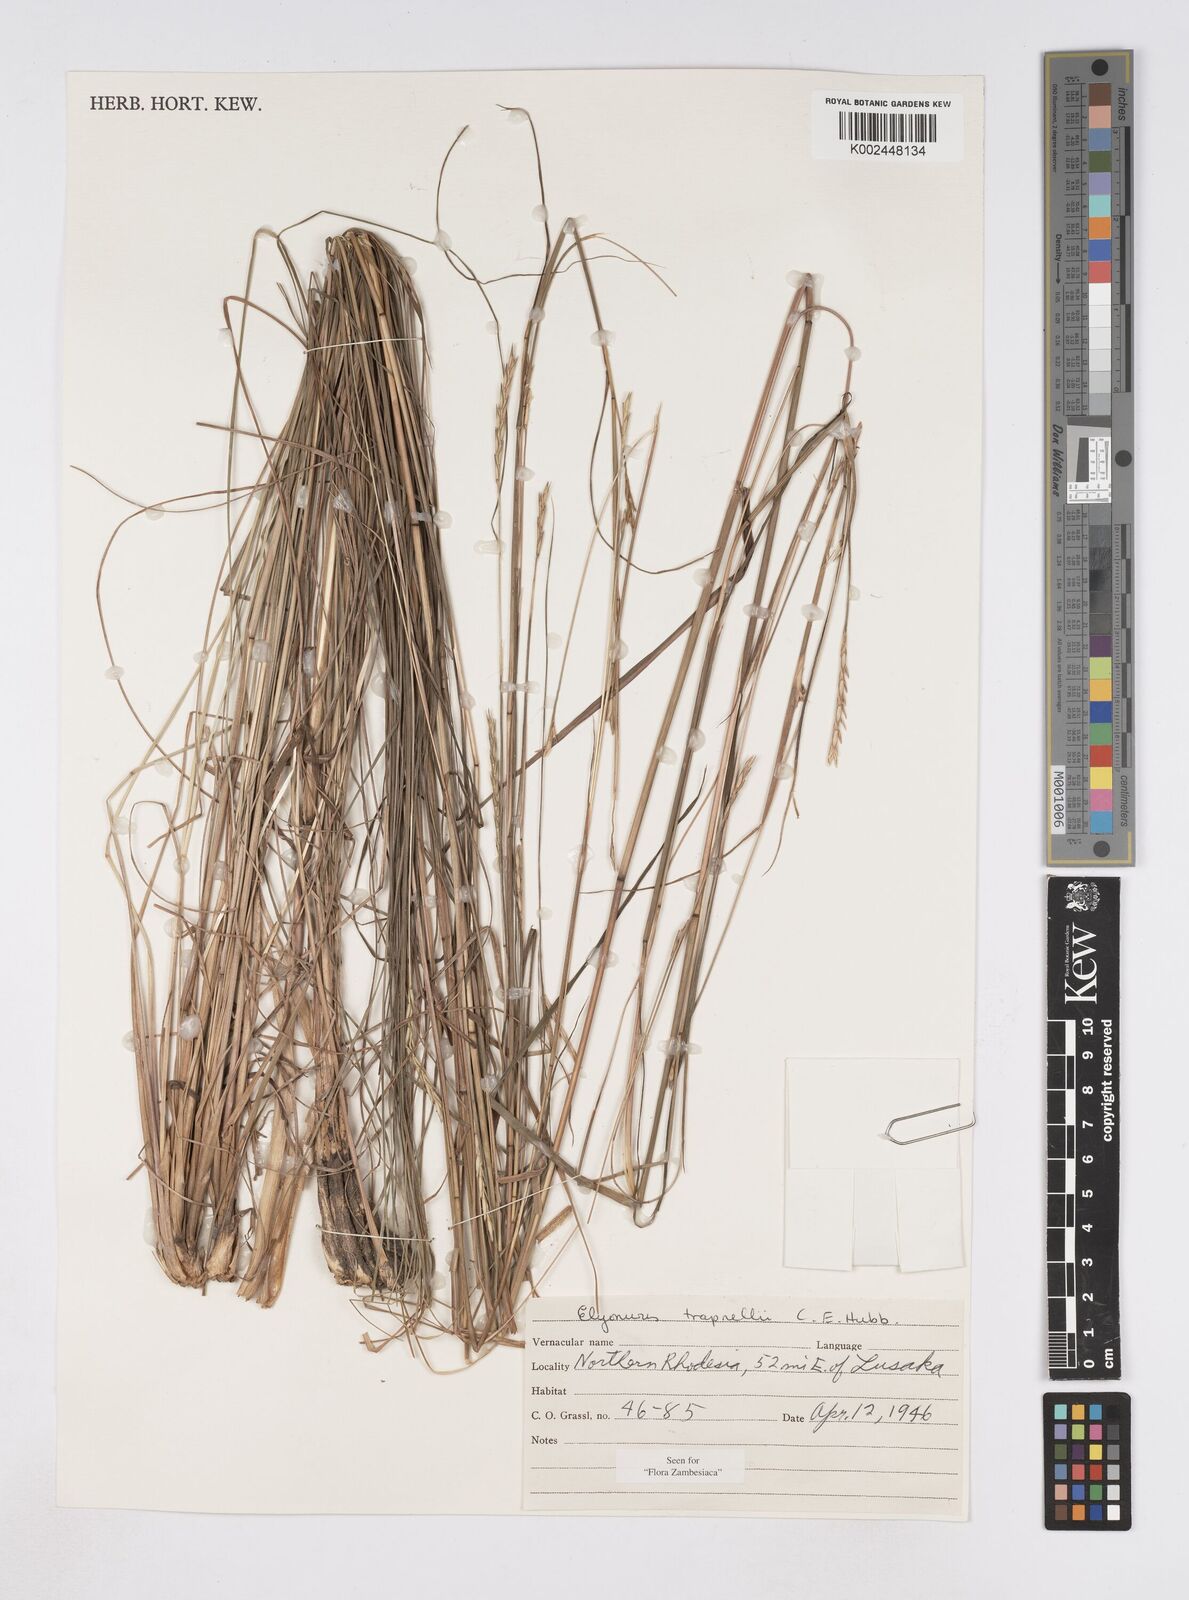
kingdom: Plantae
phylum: Tracheophyta
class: Liliopsida
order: Poales
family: Poaceae
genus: Elionurus
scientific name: Elionurus tripsacoides
